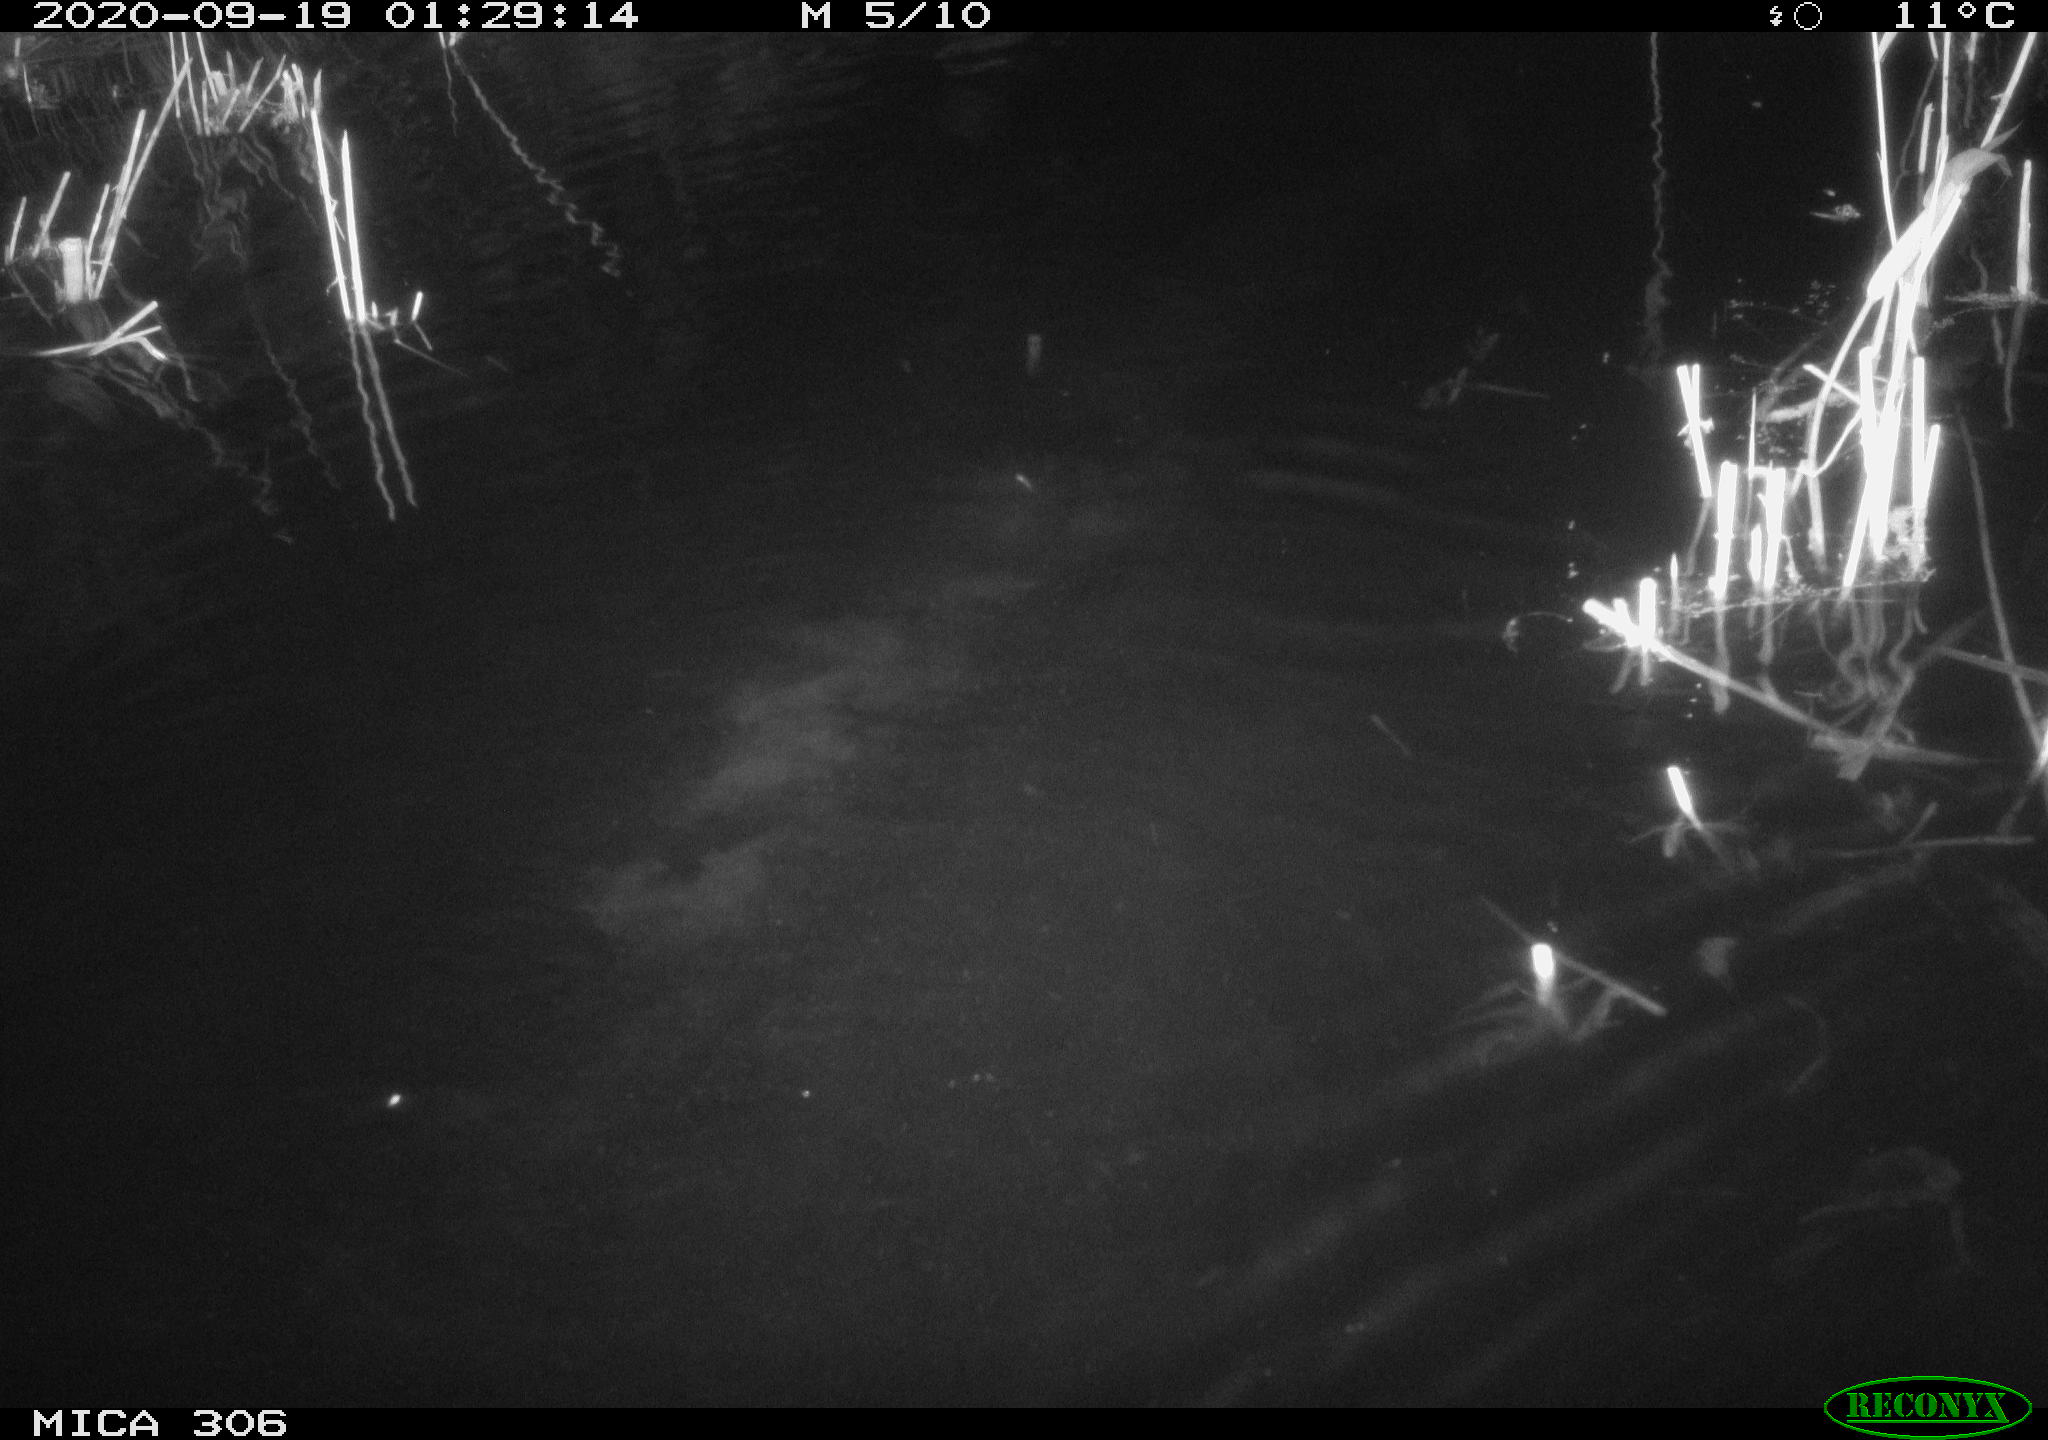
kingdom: Animalia
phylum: Chordata
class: Mammalia
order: Rodentia
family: Muridae
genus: Rattus
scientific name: Rattus norvegicus
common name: Brown rat
